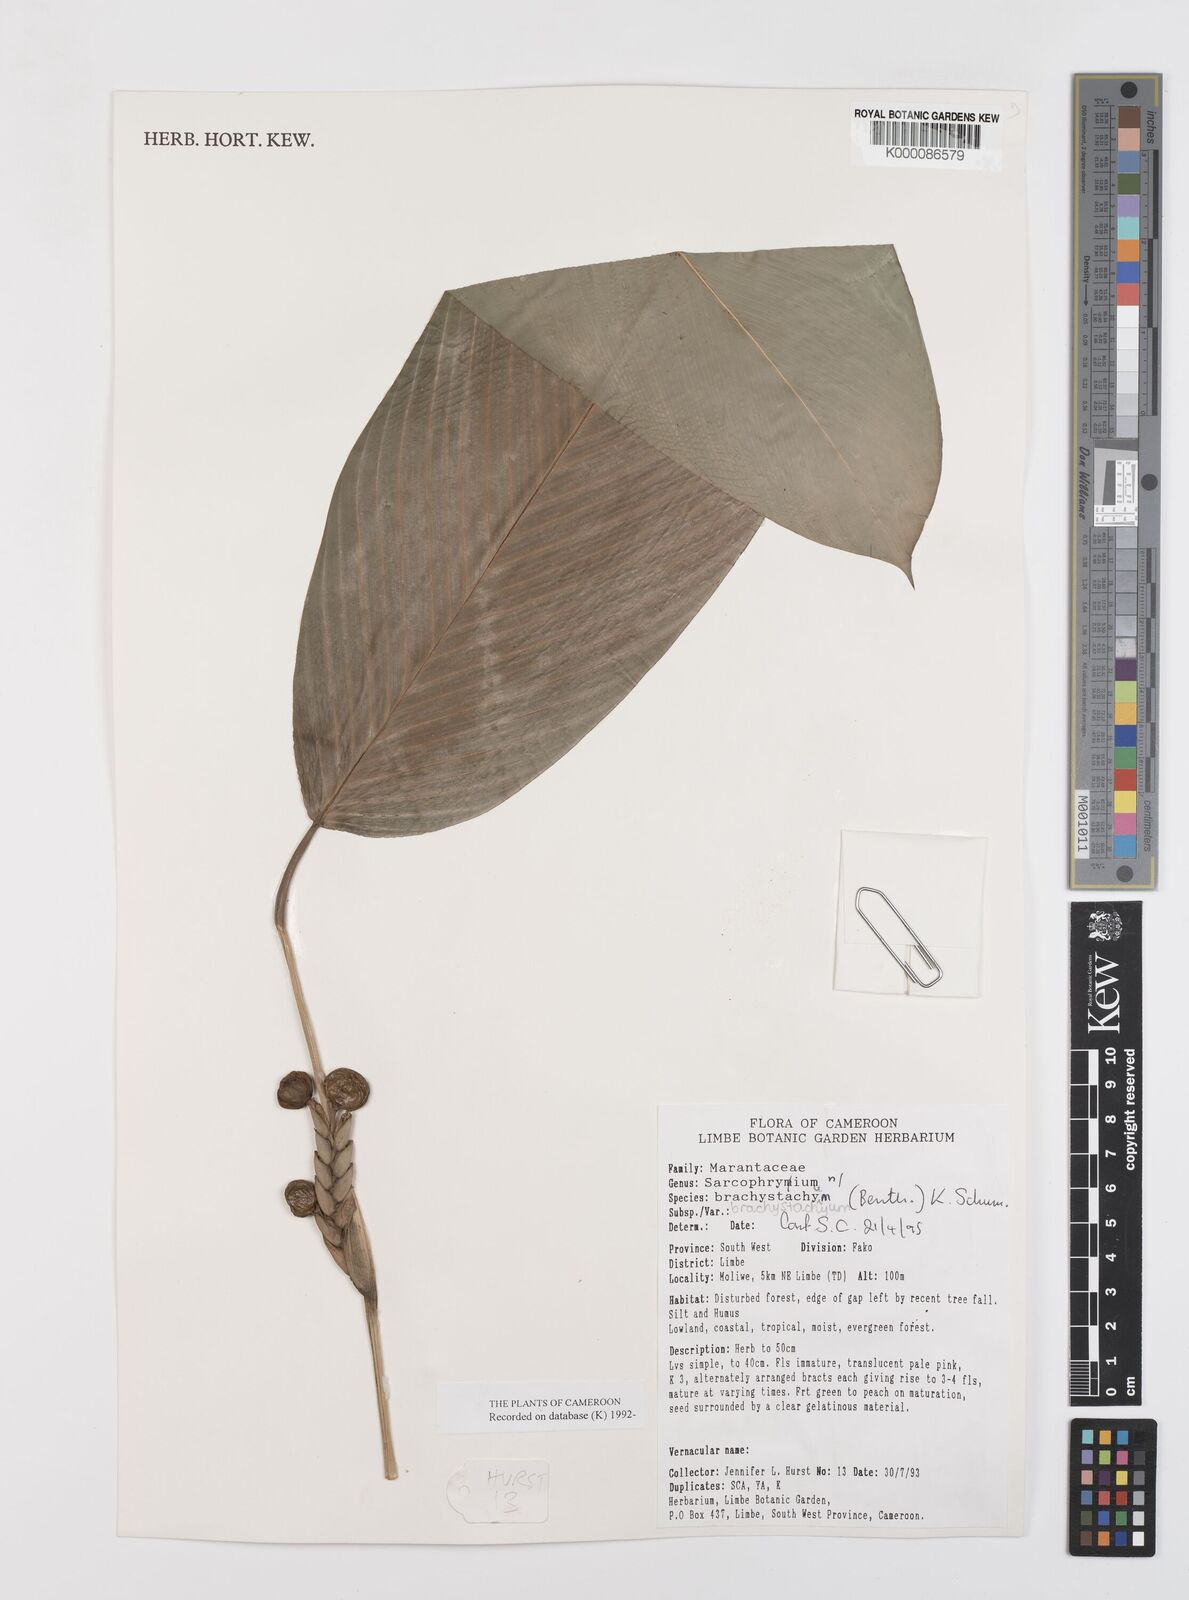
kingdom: Plantae
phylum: Tracheophyta
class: Liliopsida
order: Zingiberales
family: Marantaceae
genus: Sarcophrynium
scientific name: Sarcophrynium
